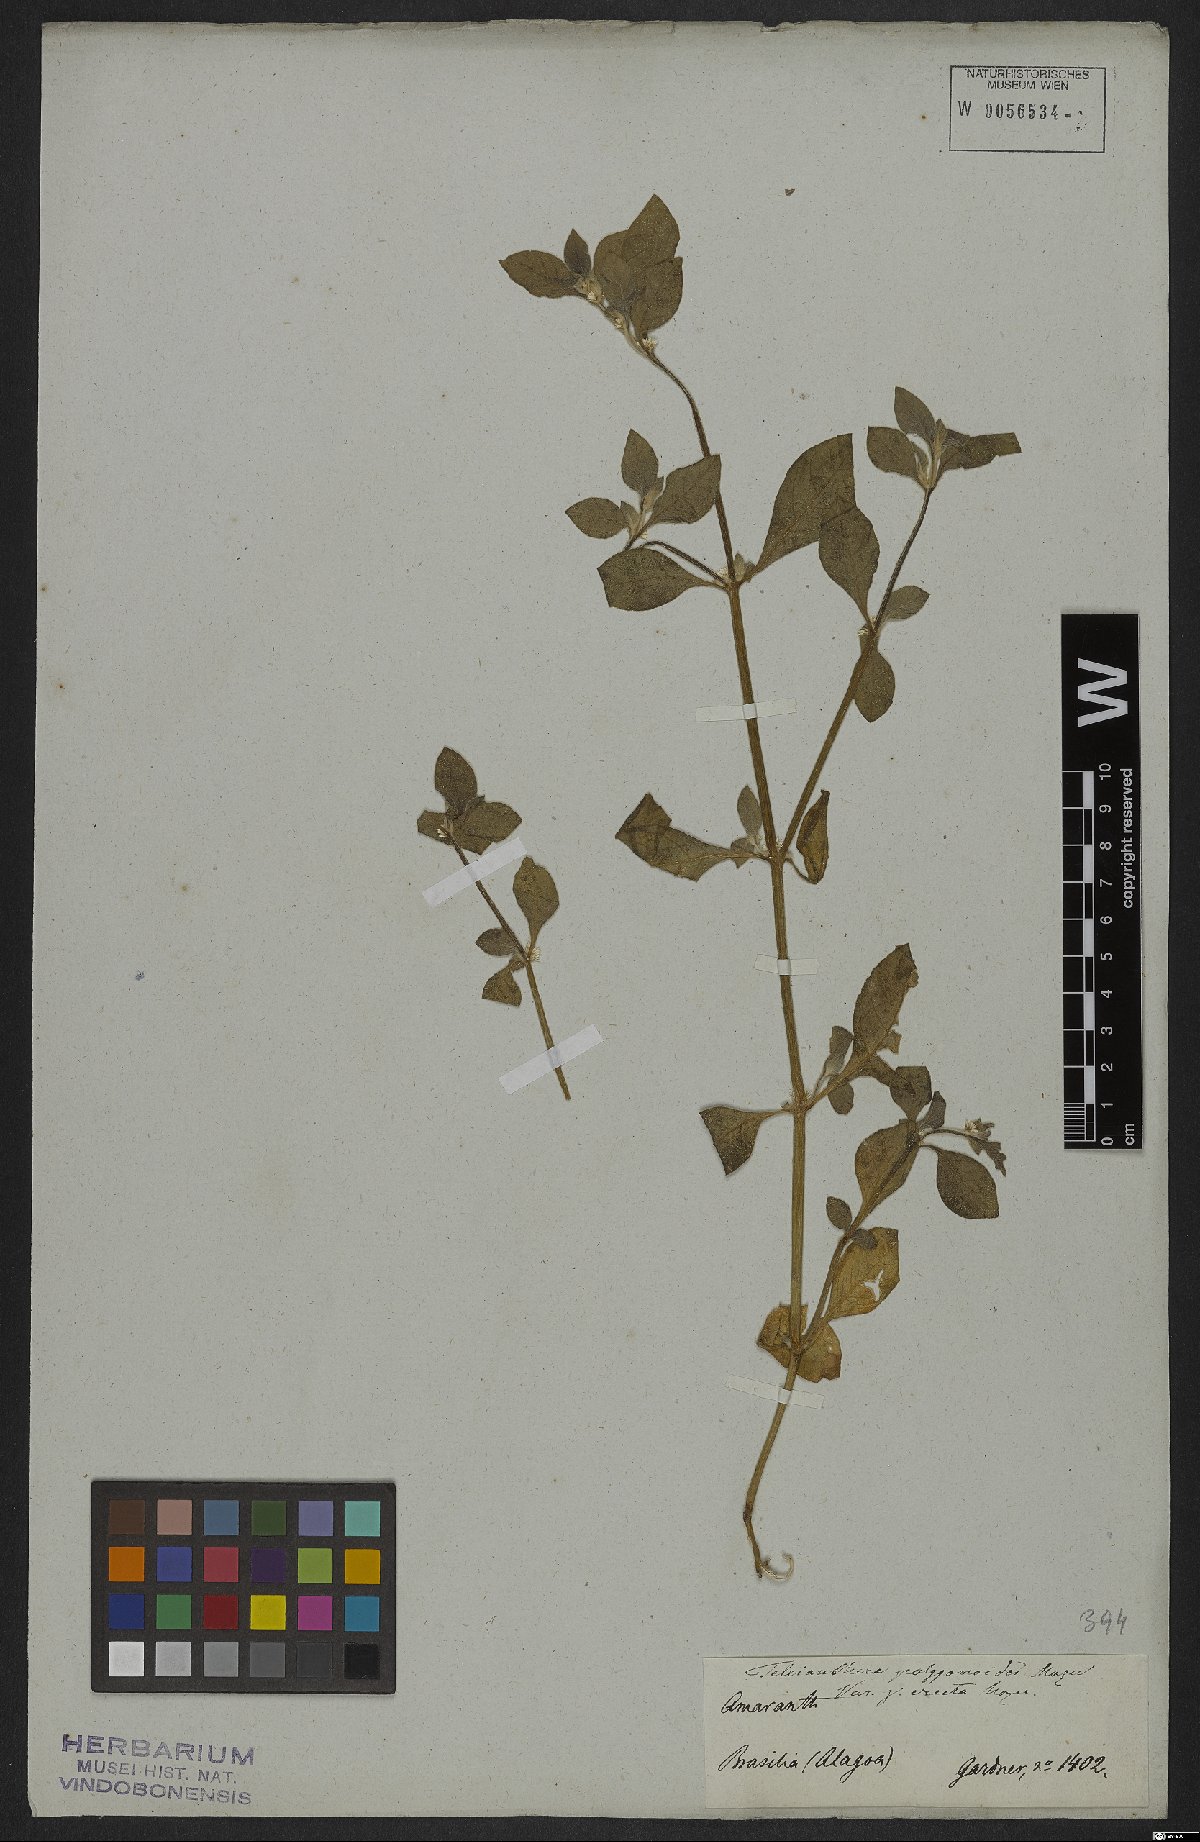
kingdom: Plantae
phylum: Tracheophyta
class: Magnoliopsida
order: Caryophyllales
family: Amaranthaceae
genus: Alternanthera
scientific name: Alternanthera sessilis
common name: Sessile joyweed
